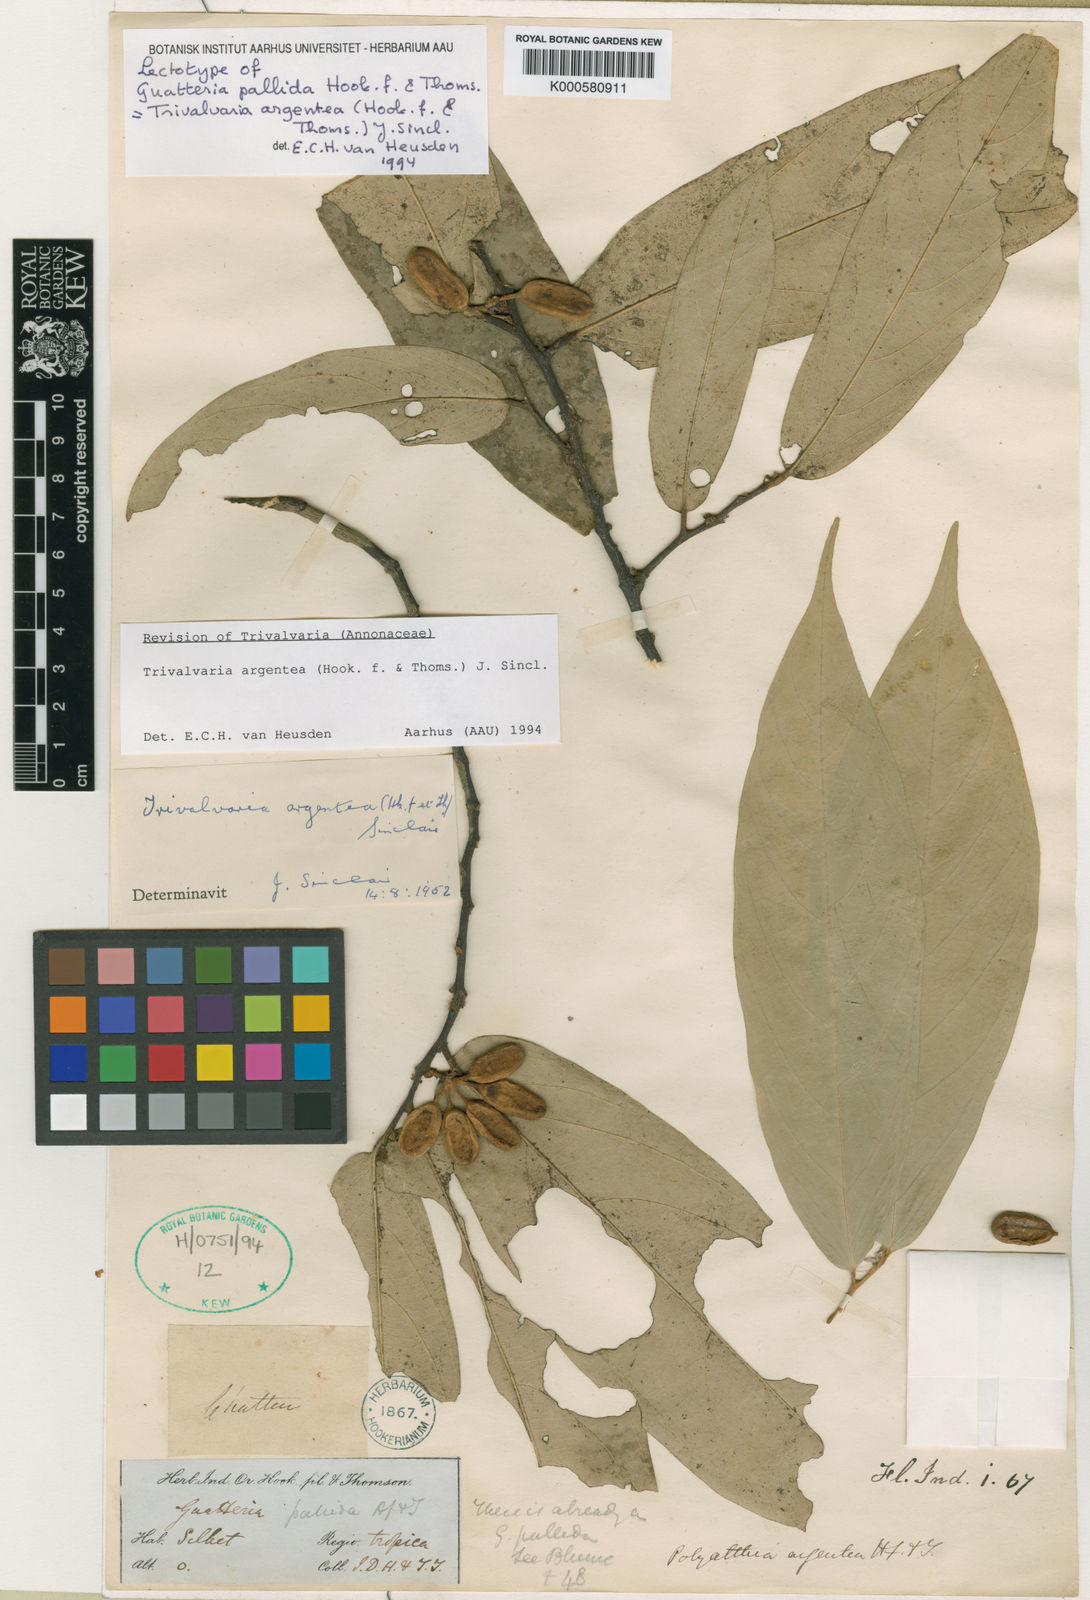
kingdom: Plantae
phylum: Tracheophyta
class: Magnoliopsida
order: Magnoliales
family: Annonaceae
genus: Trivalvaria
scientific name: Trivalvaria argentea
